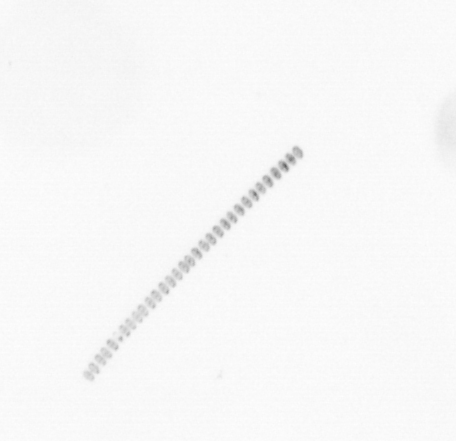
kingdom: Chromista
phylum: Ochrophyta
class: Bacillariophyceae
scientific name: Bacillariophyceae
